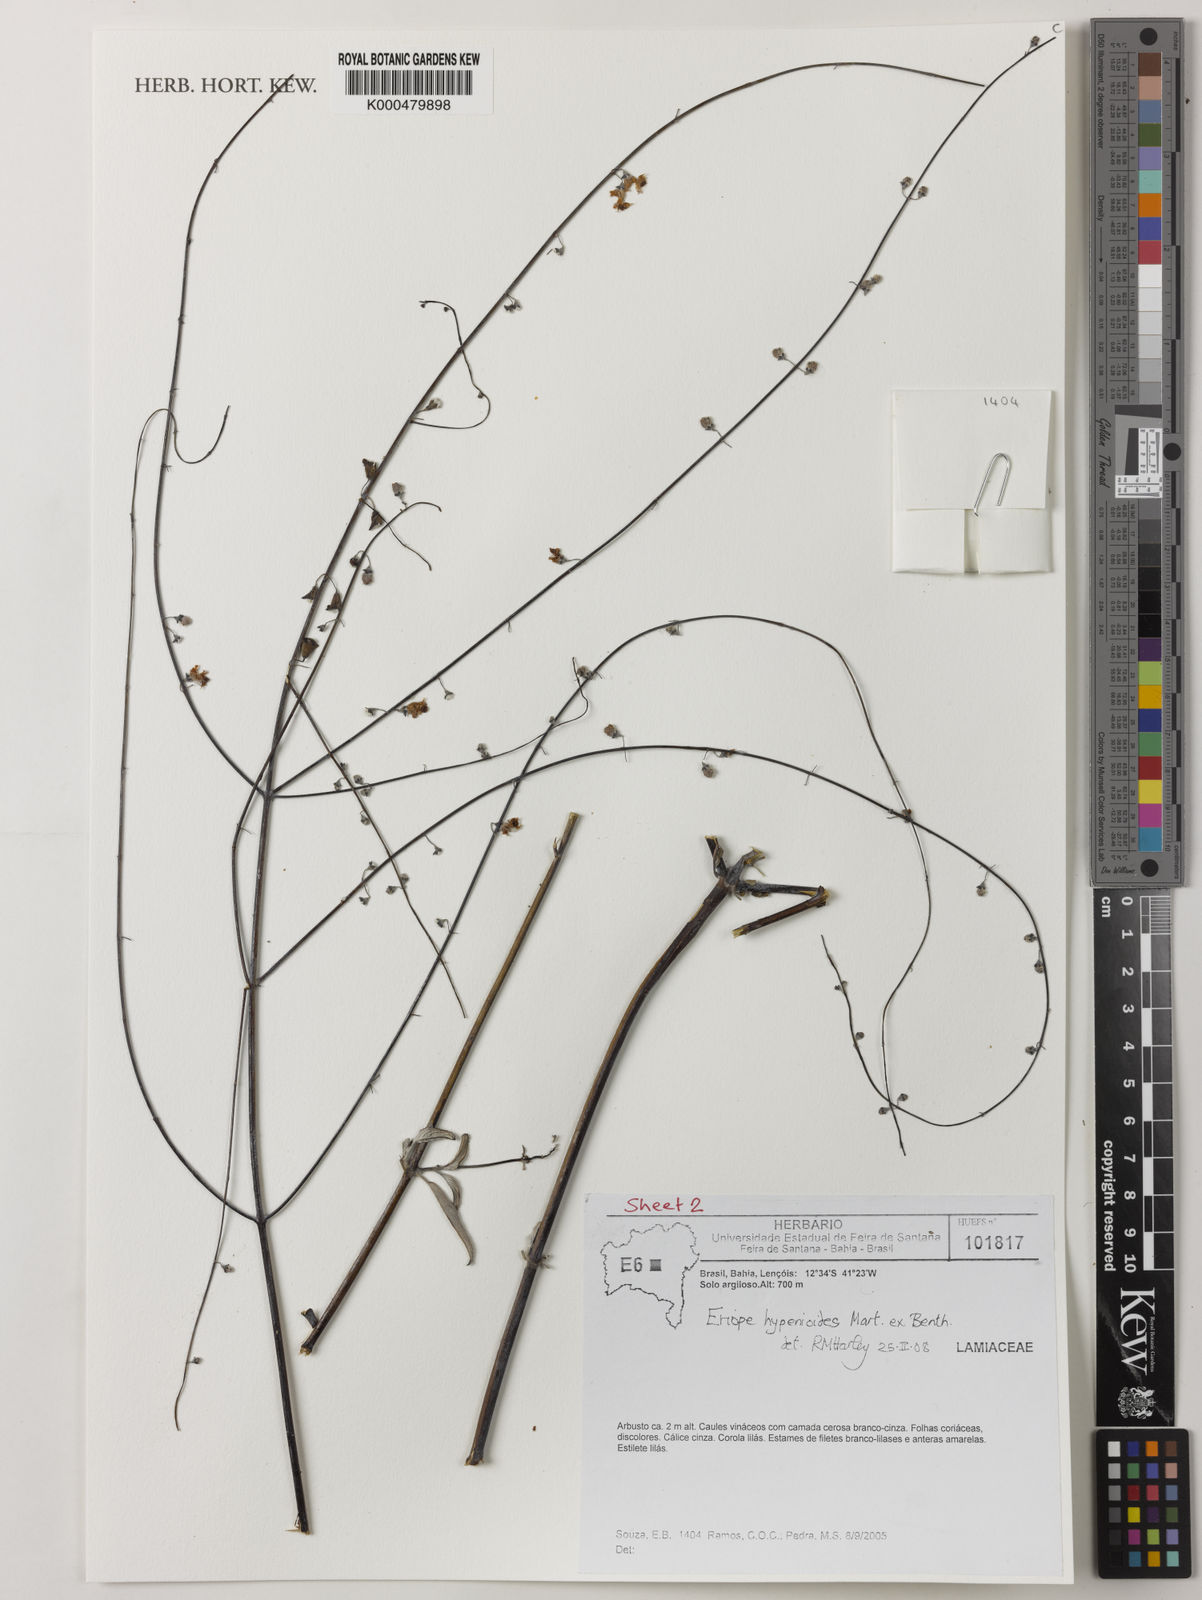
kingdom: Plantae
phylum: Tracheophyta
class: Magnoliopsida
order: Lamiales
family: Lamiaceae
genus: Eriope
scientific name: Eriope hypenioides
